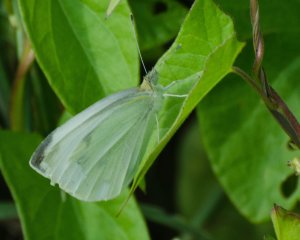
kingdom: Animalia
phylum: Arthropoda
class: Insecta
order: Lepidoptera
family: Pieridae
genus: Pieris
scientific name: Pieris rapae
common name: Cabbage White
